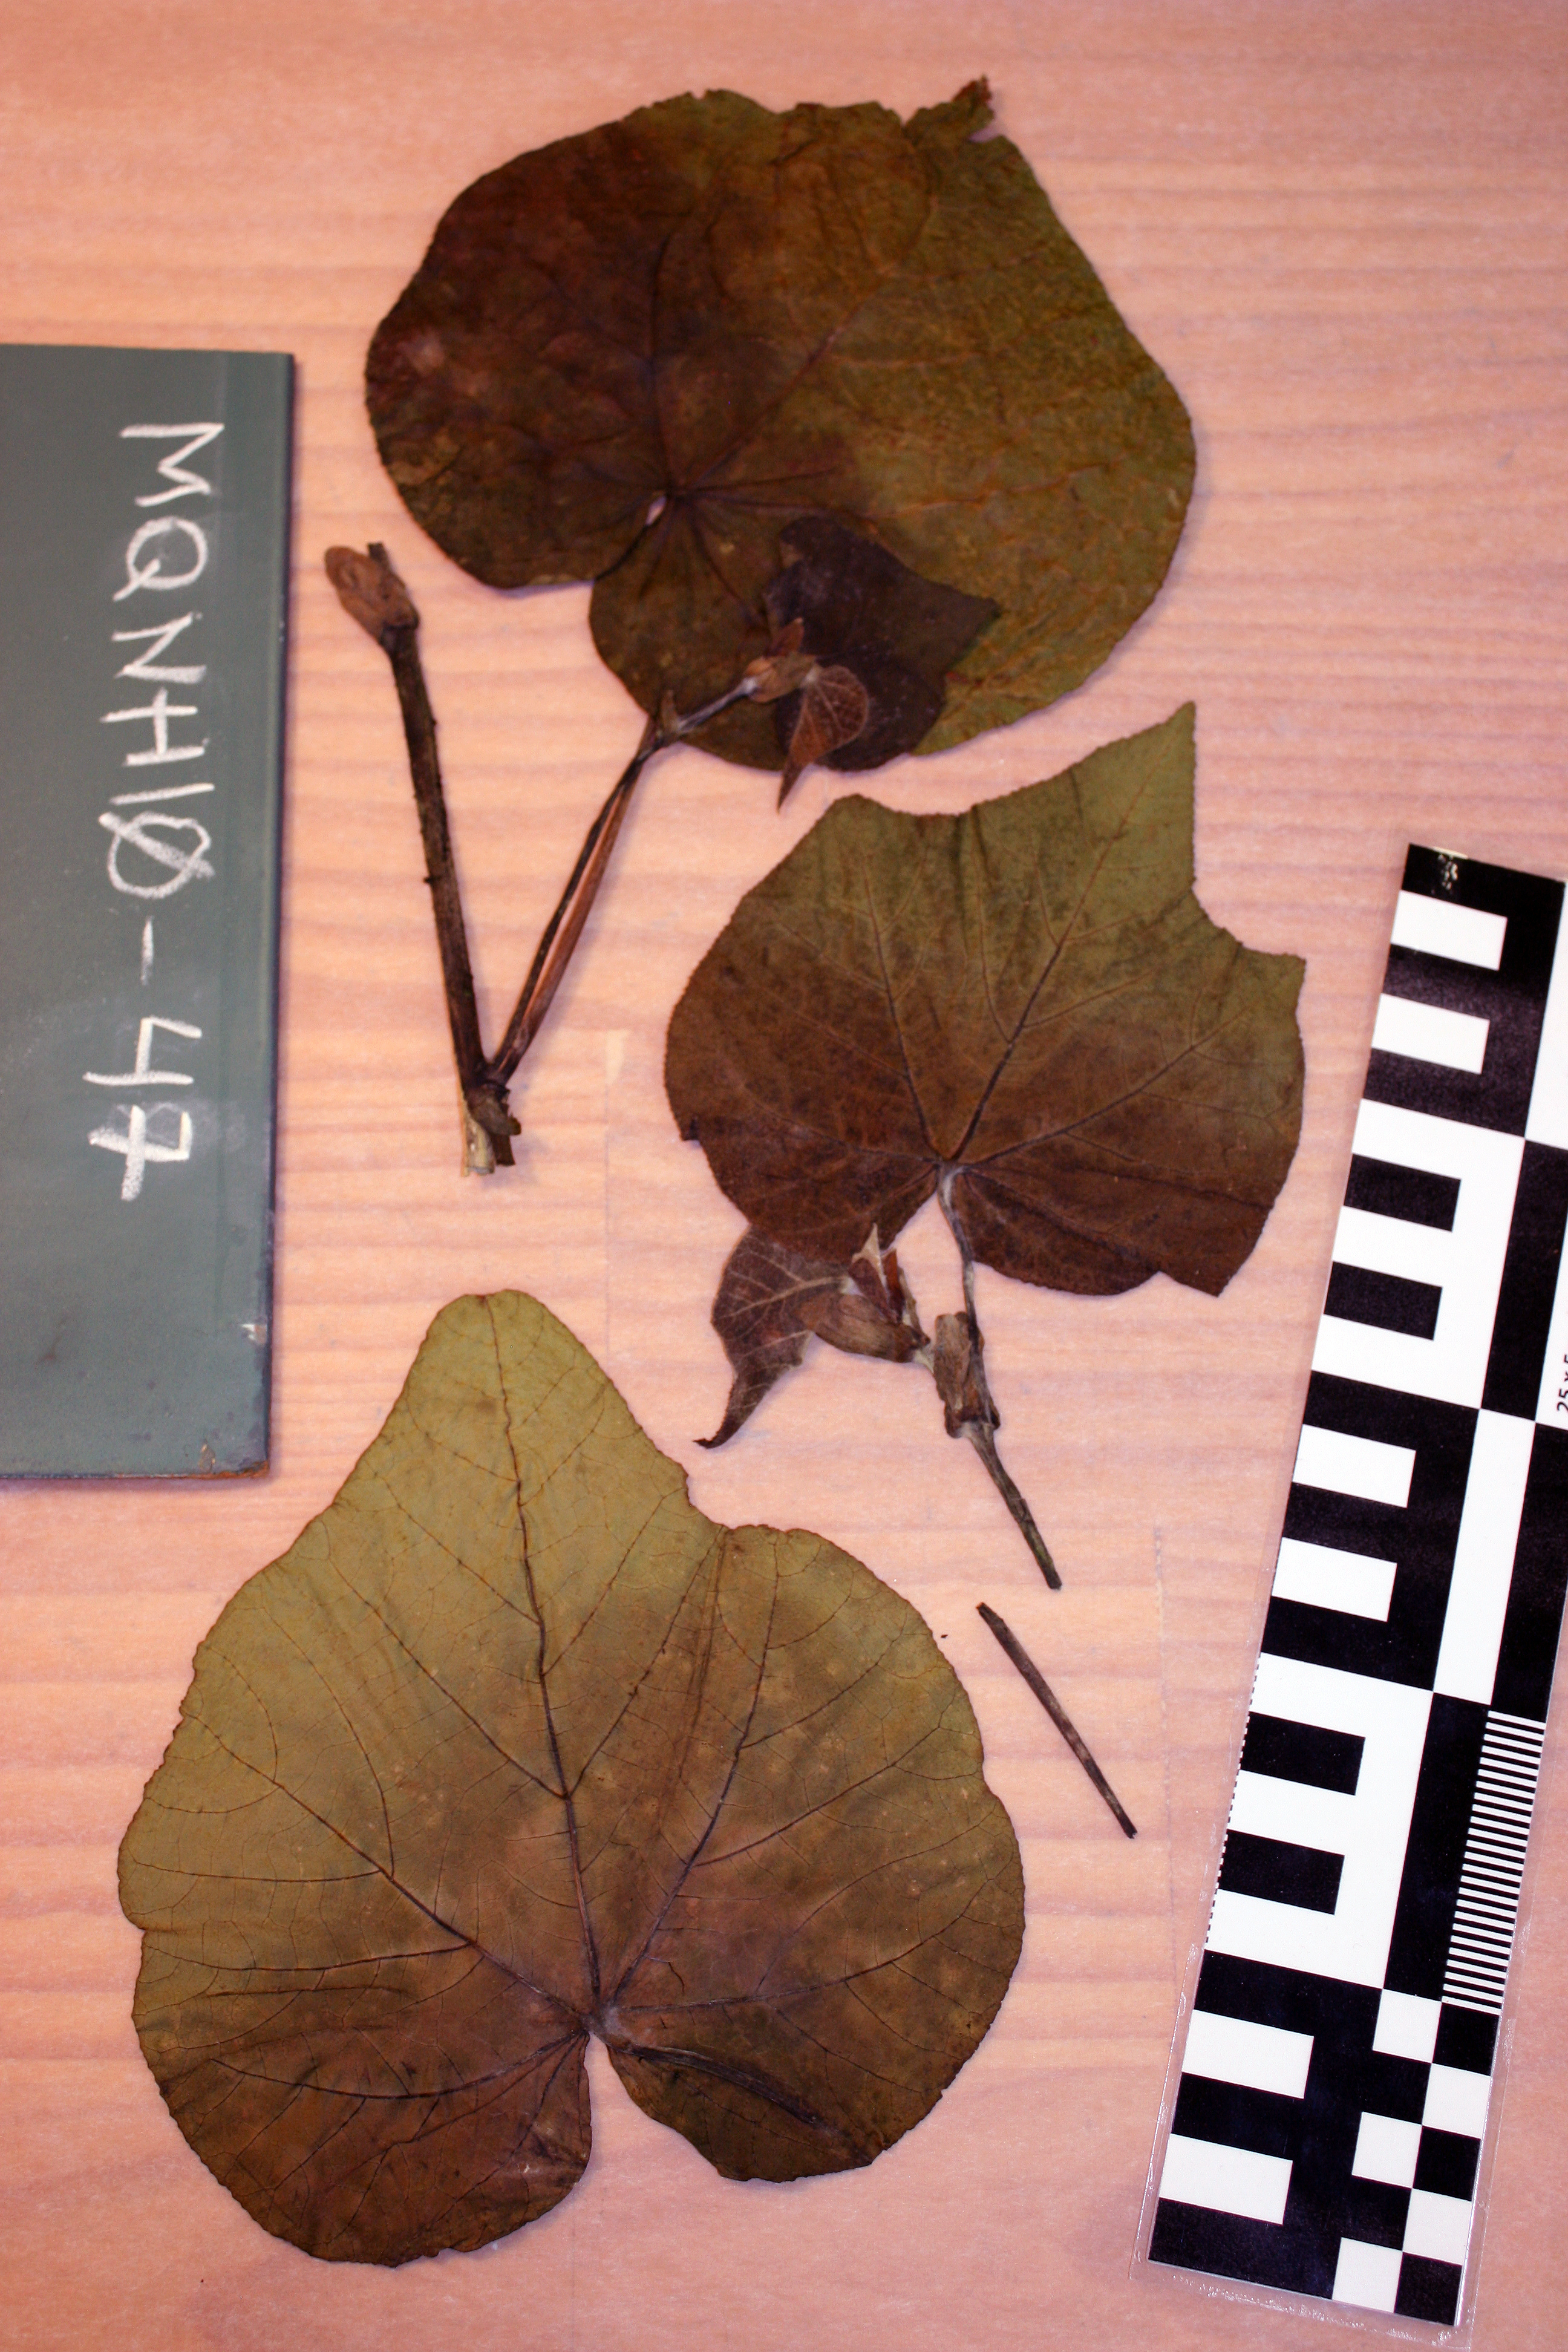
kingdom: Plantae
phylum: Tracheophyta
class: Magnoliopsida
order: Malvales
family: Malvaceae
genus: Talipariti
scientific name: Talipariti tiliaceum
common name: Sea hibiscus
